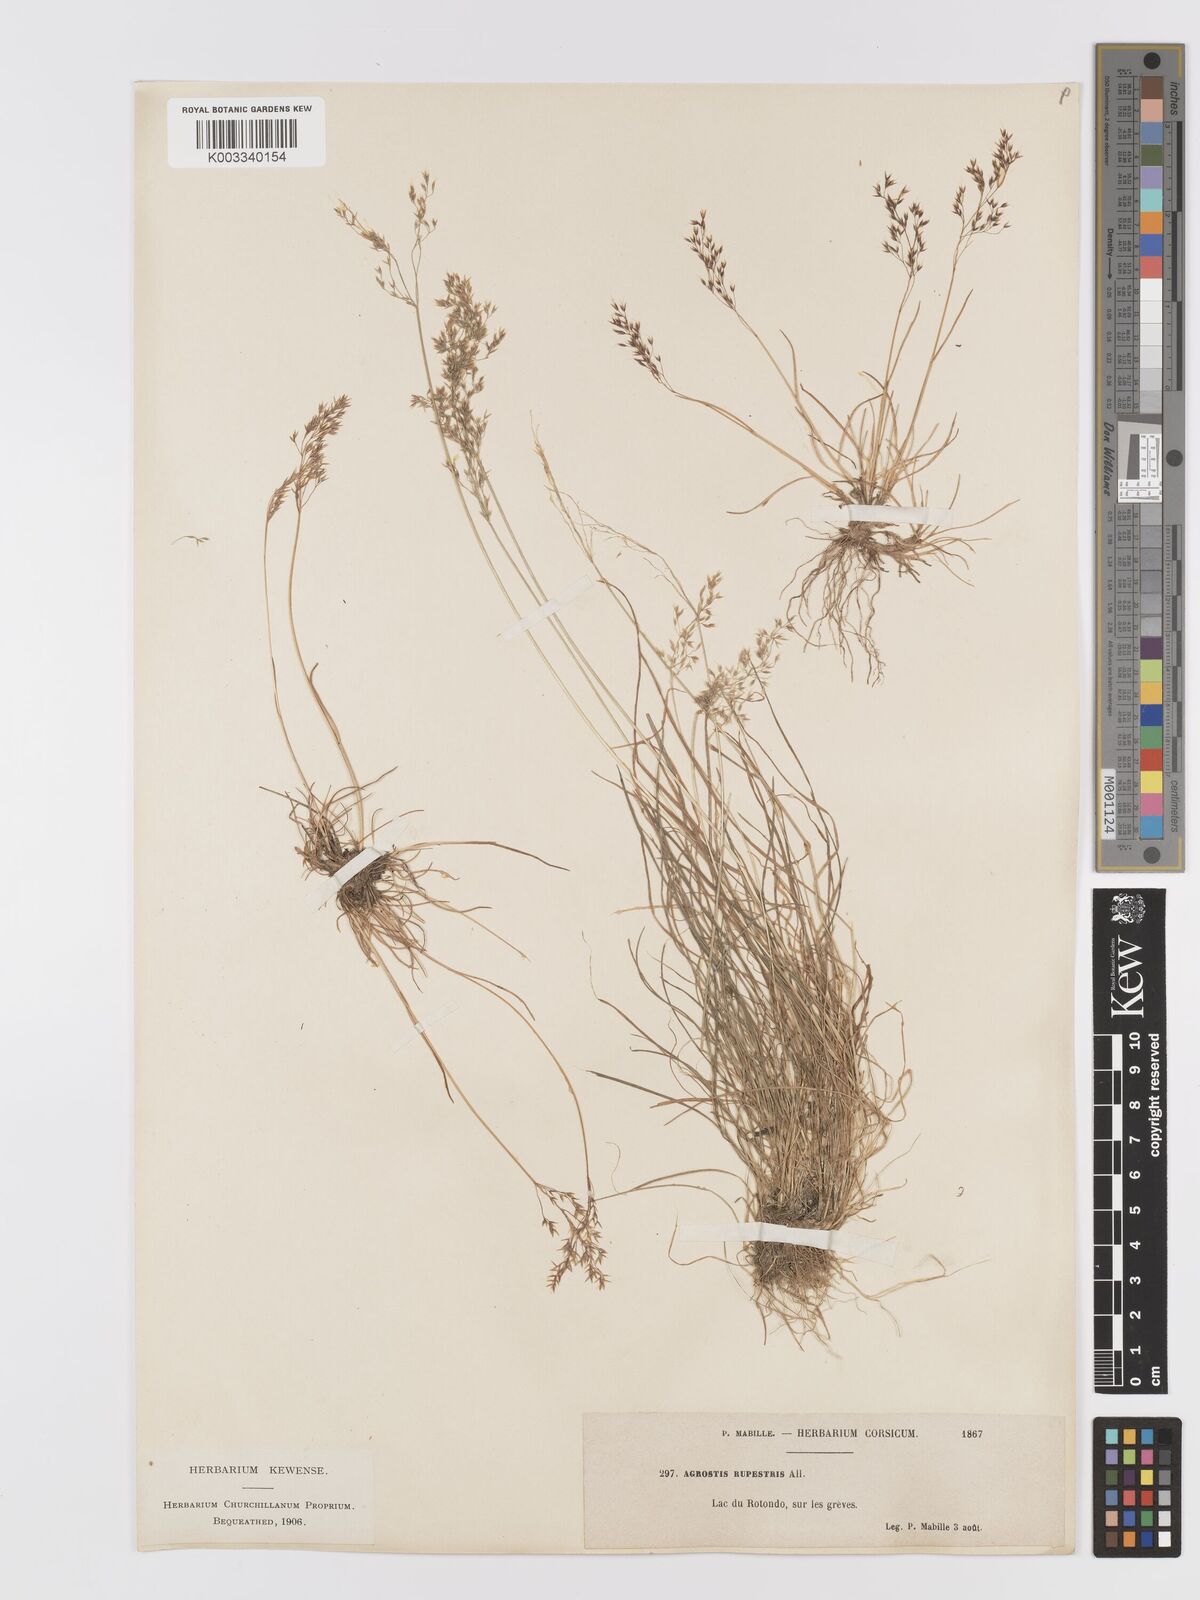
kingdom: Plantae
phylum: Tracheophyta
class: Liliopsida
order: Poales
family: Poaceae
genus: Agrostis
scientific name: Agrostis rupestris
